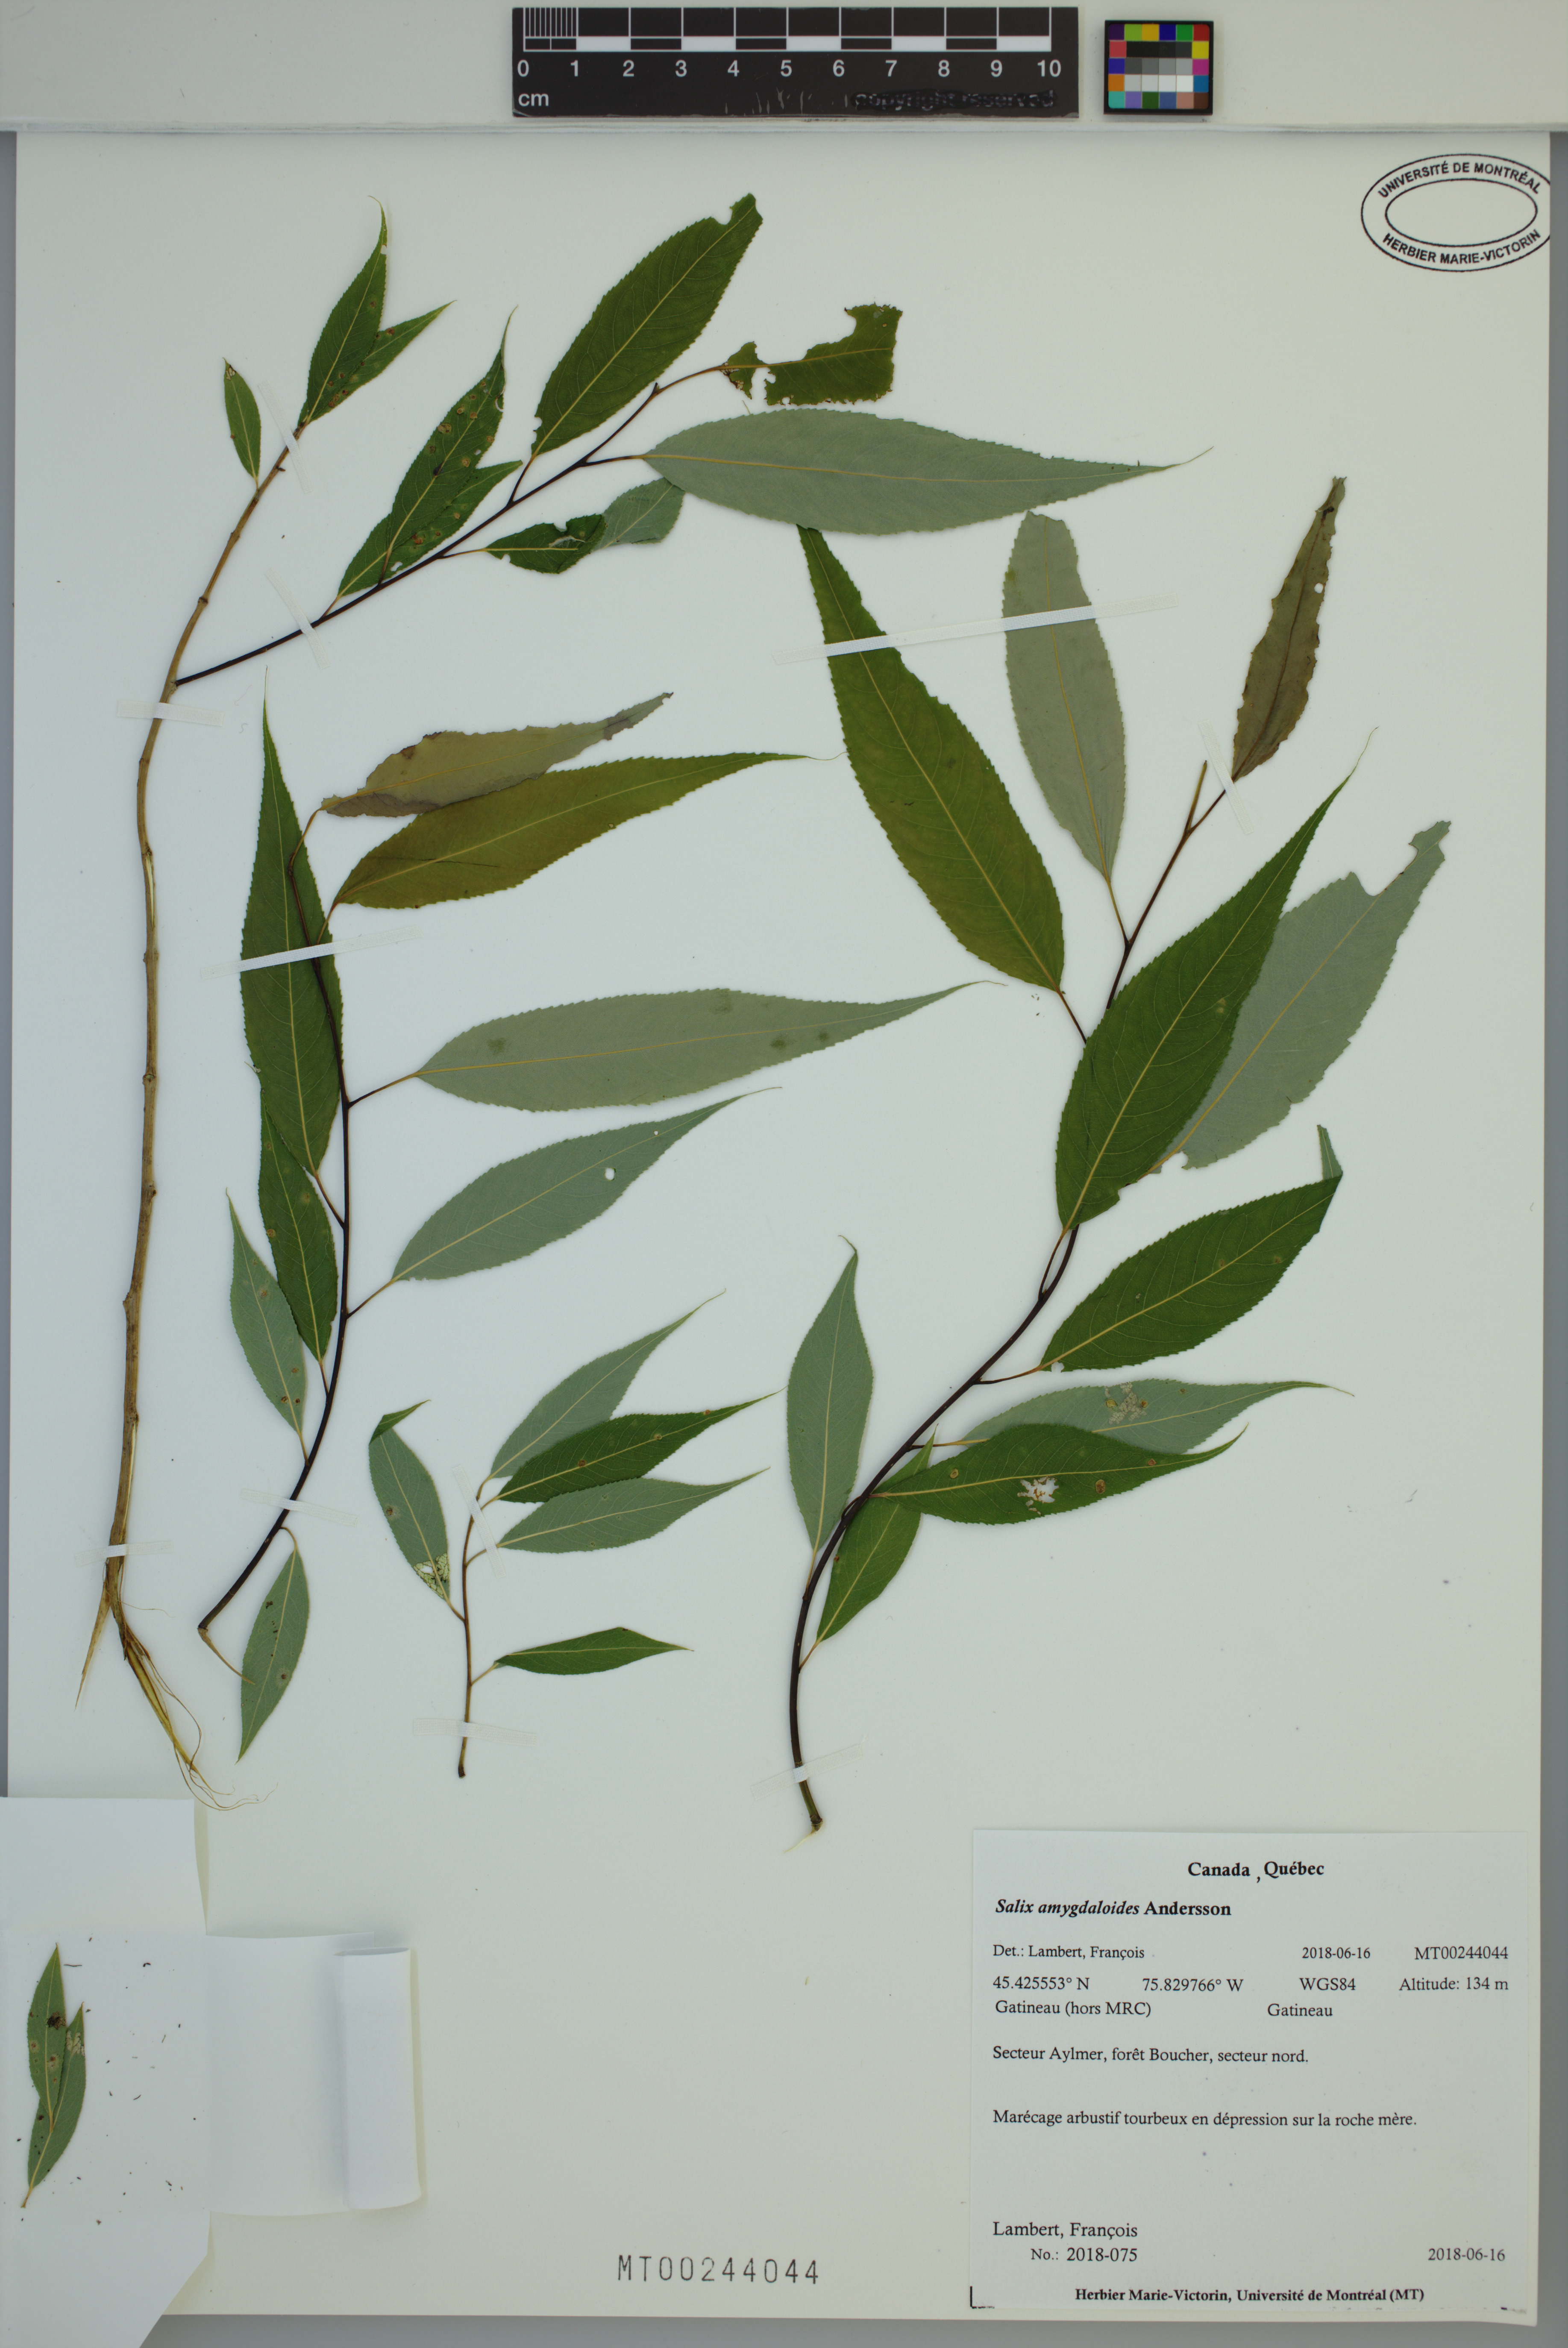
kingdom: Plantae
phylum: Tracheophyta
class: Magnoliopsida
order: Malpighiales
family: Salicaceae
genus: Salix
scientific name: Salix amygdaloides
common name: Peach leaf willow
